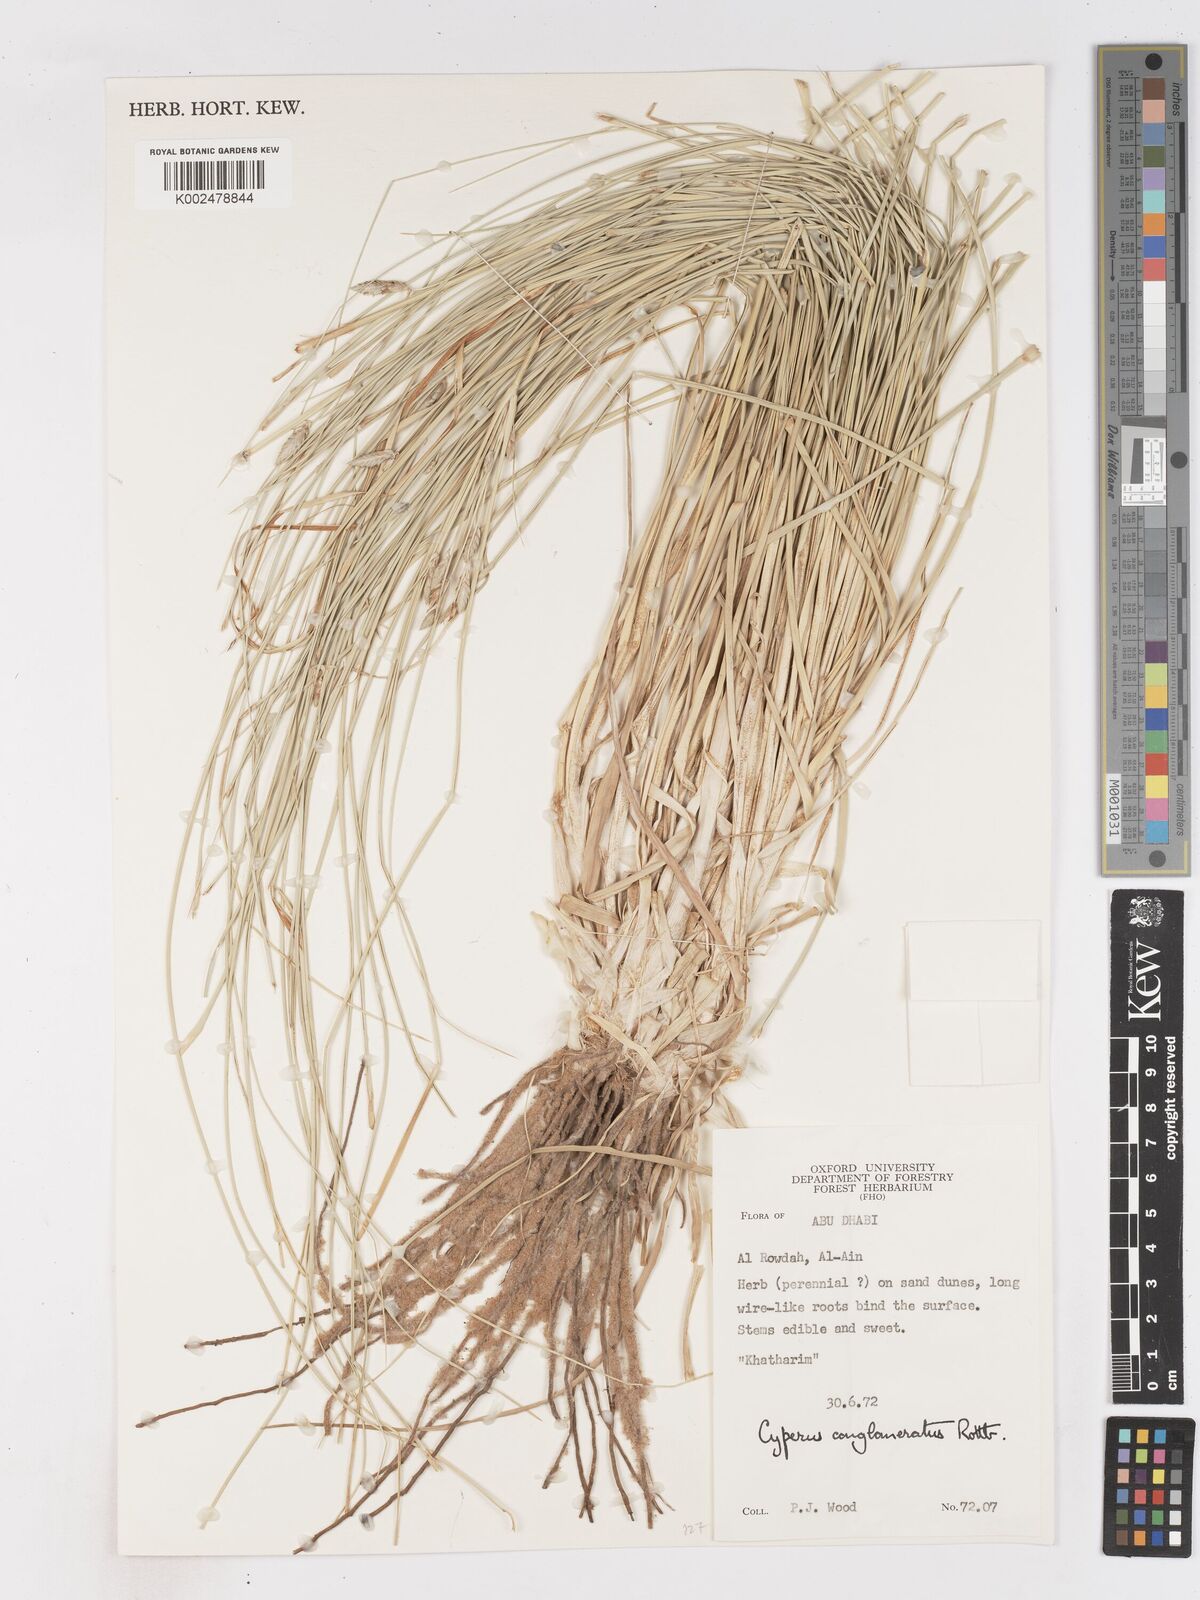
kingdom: Plantae
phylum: Tracheophyta
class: Liliopsida
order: Poales
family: Cyperaceae
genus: Cyperus
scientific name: Cyperus
